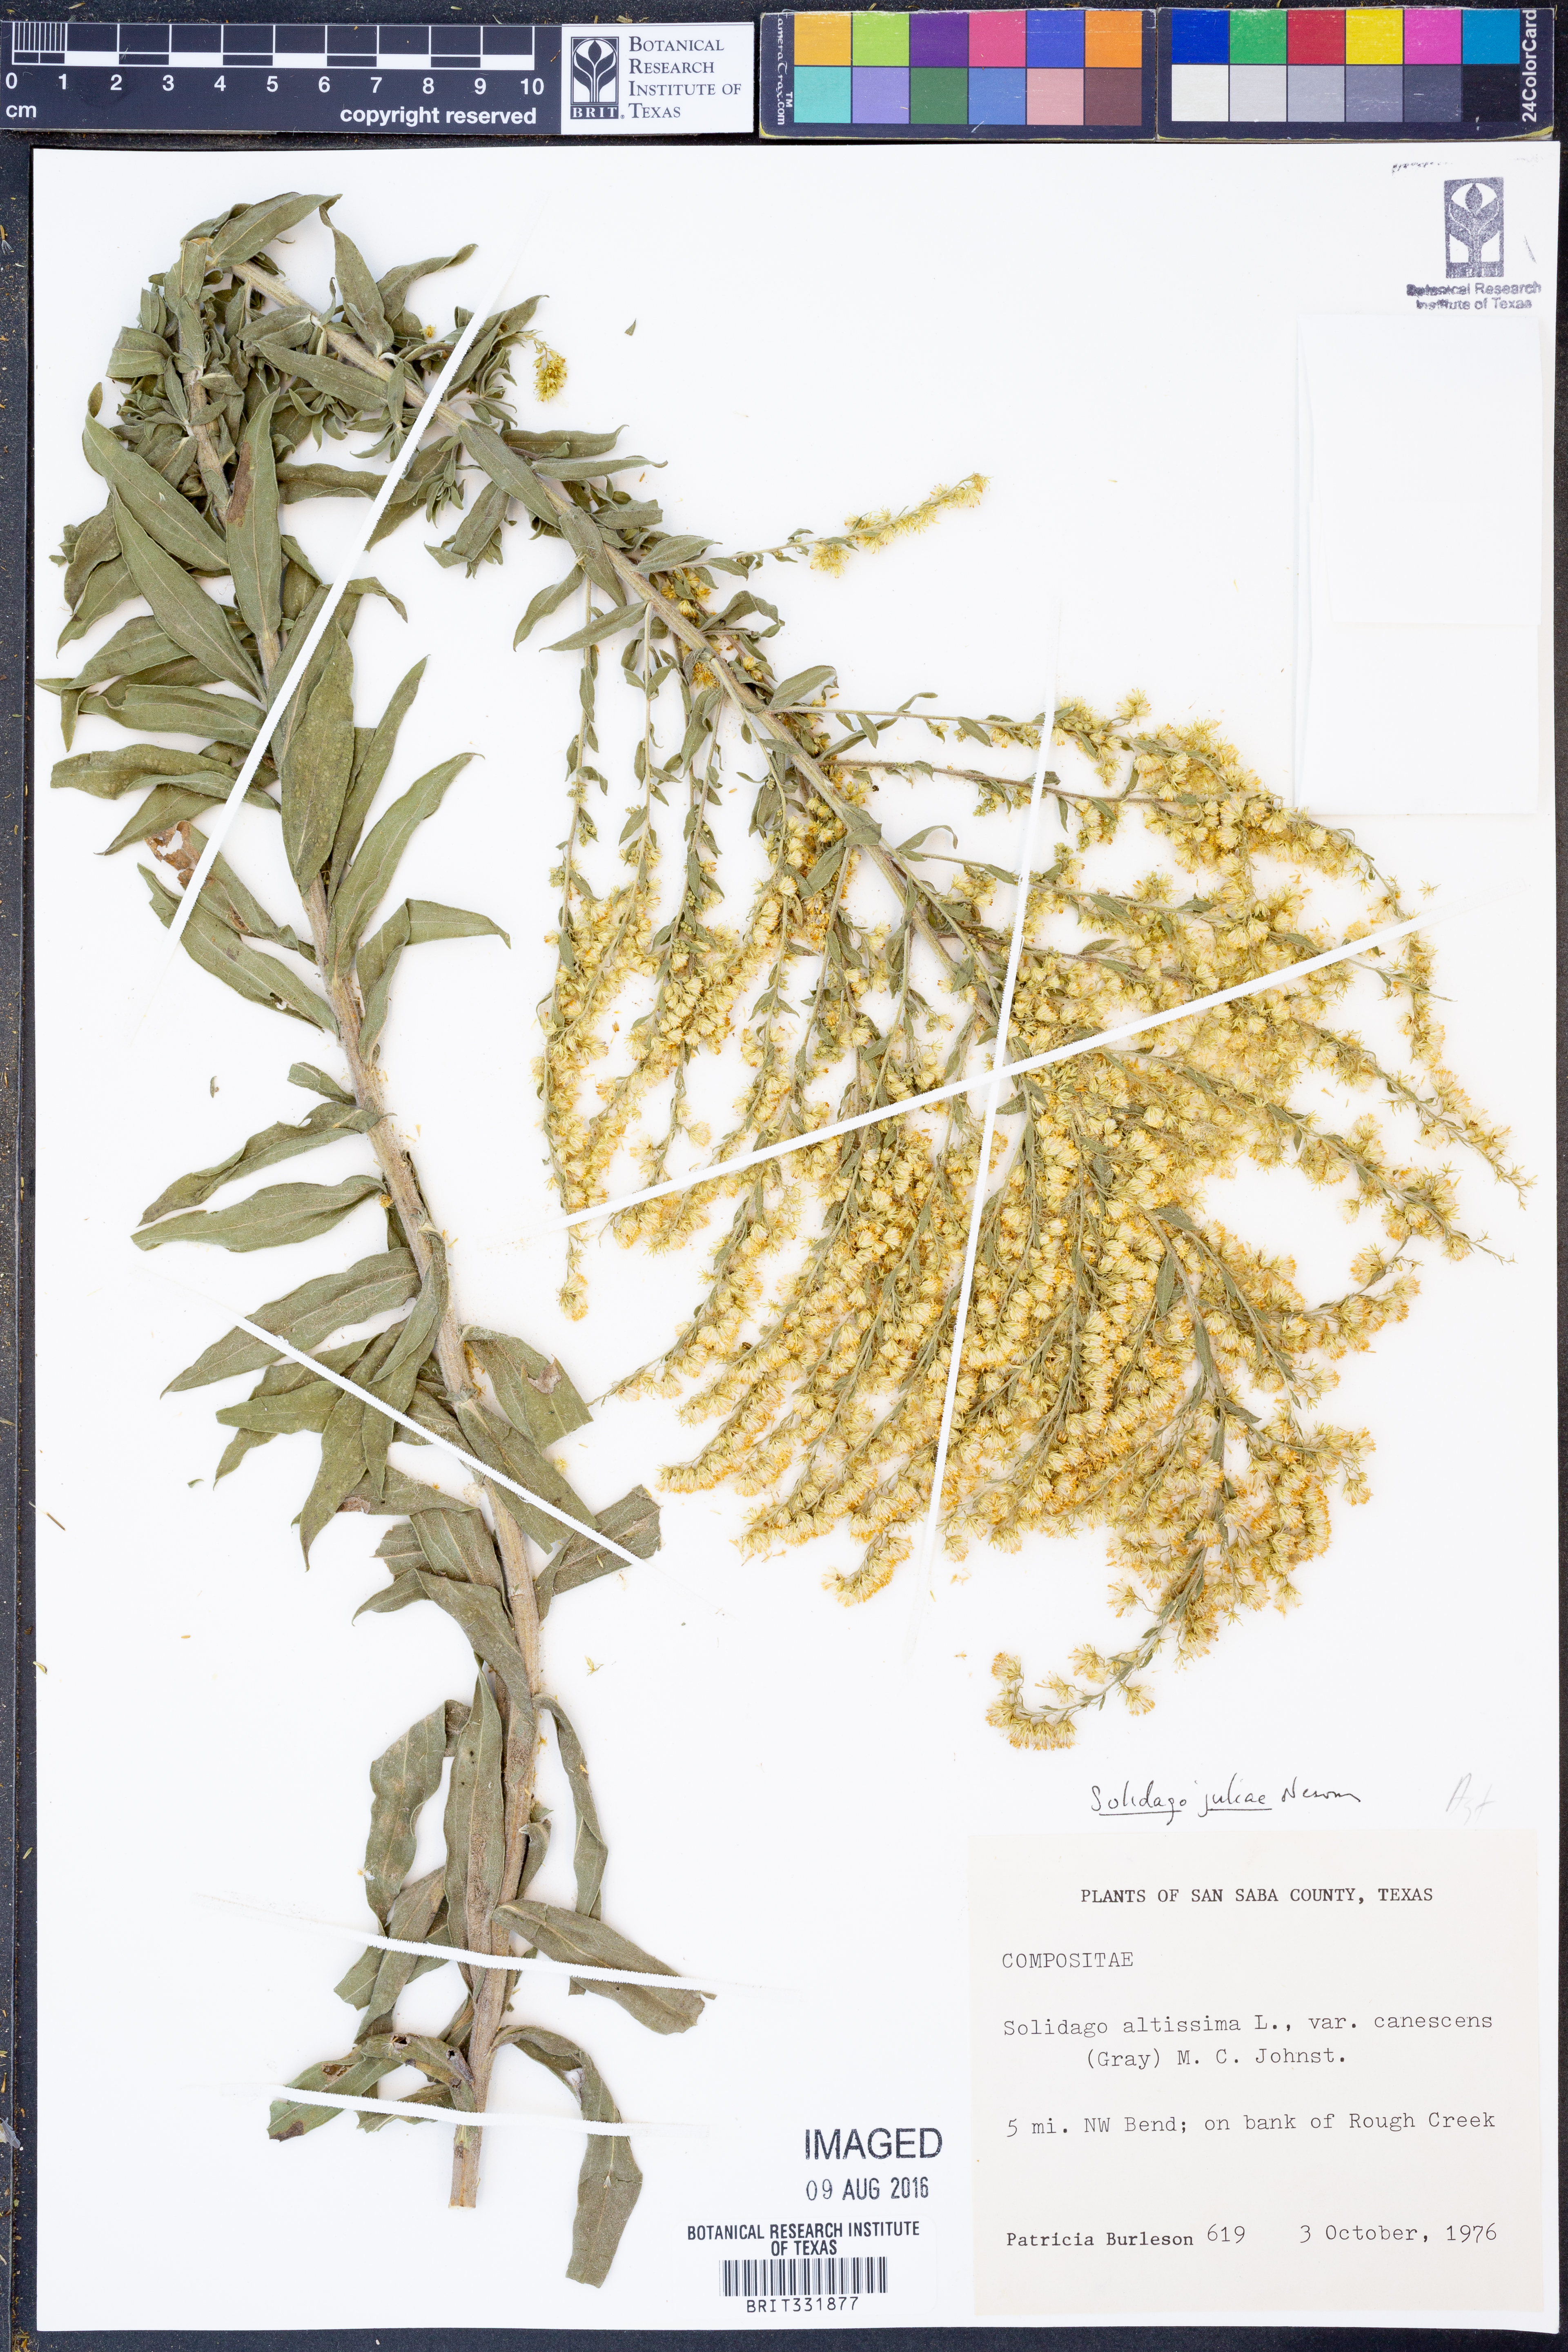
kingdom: Plantae
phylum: Tracheophyta
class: Magnoliopsida
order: Asterales
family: Asteraceae
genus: Solidago
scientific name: Solidago juliae
